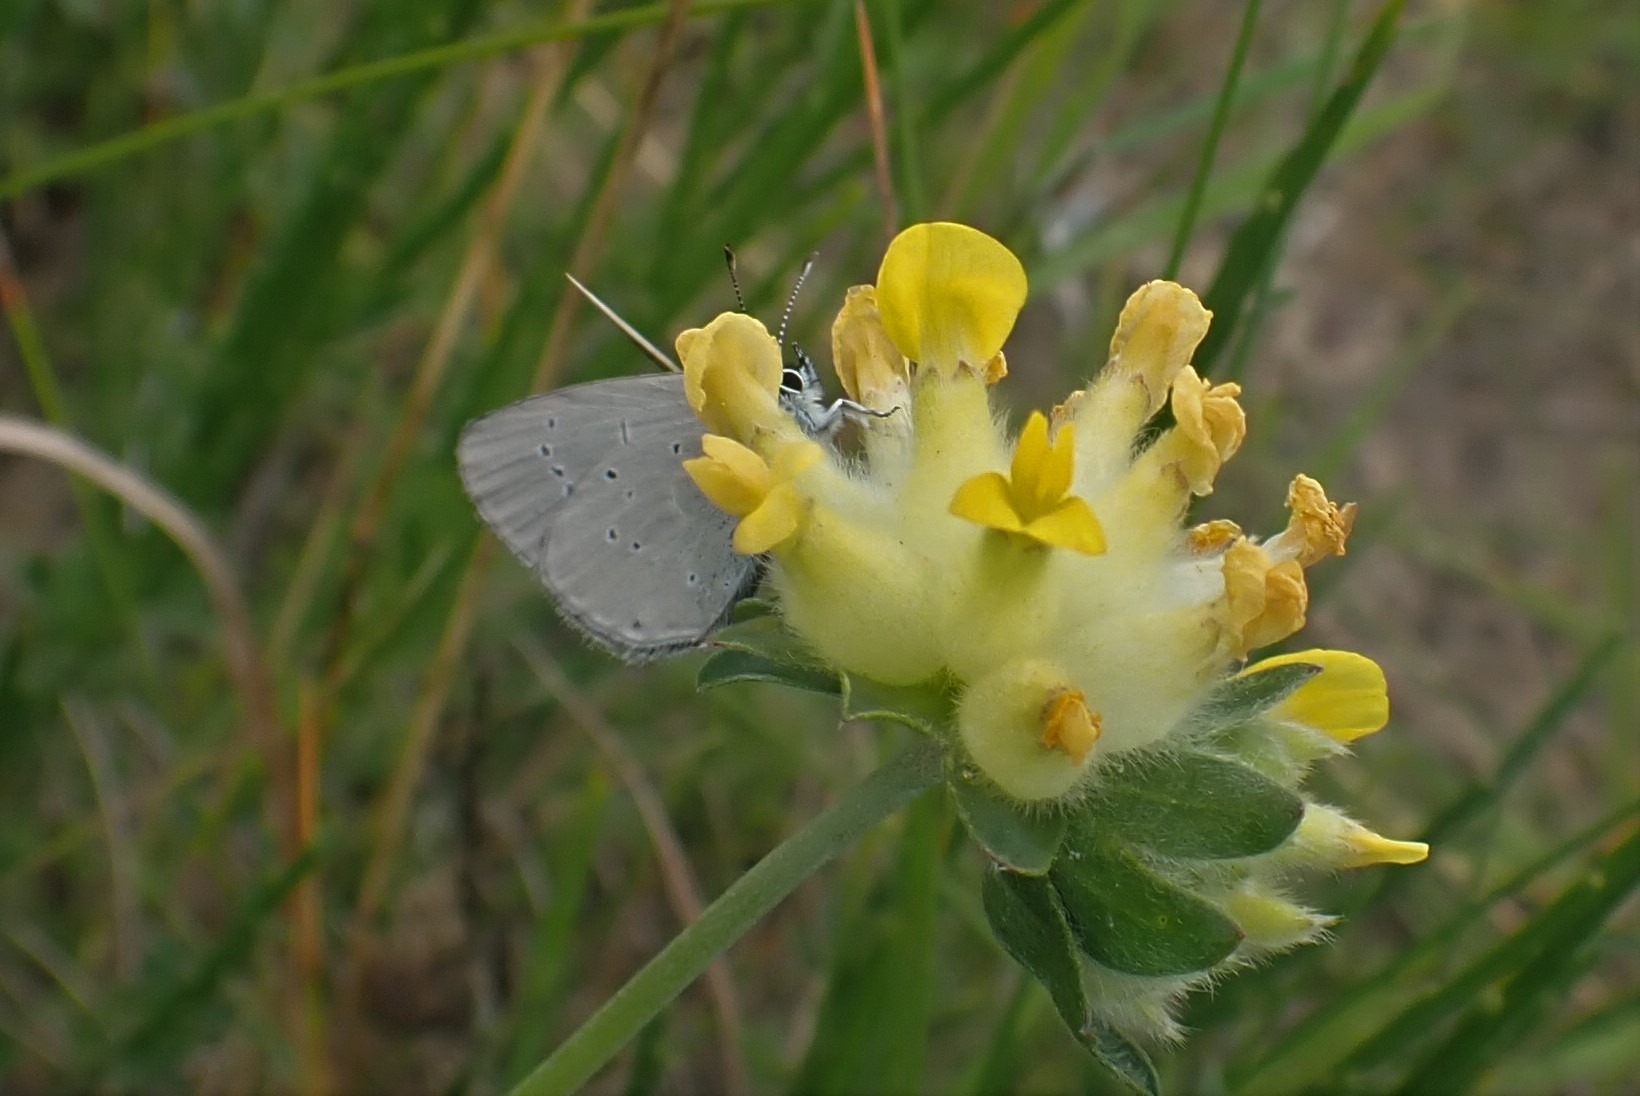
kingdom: Animalia
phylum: Arthropoda
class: Insecta
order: Lepidoptera
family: Lycaenidae
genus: Cupido
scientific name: Cupido minimus
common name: Dværgblåfugl
